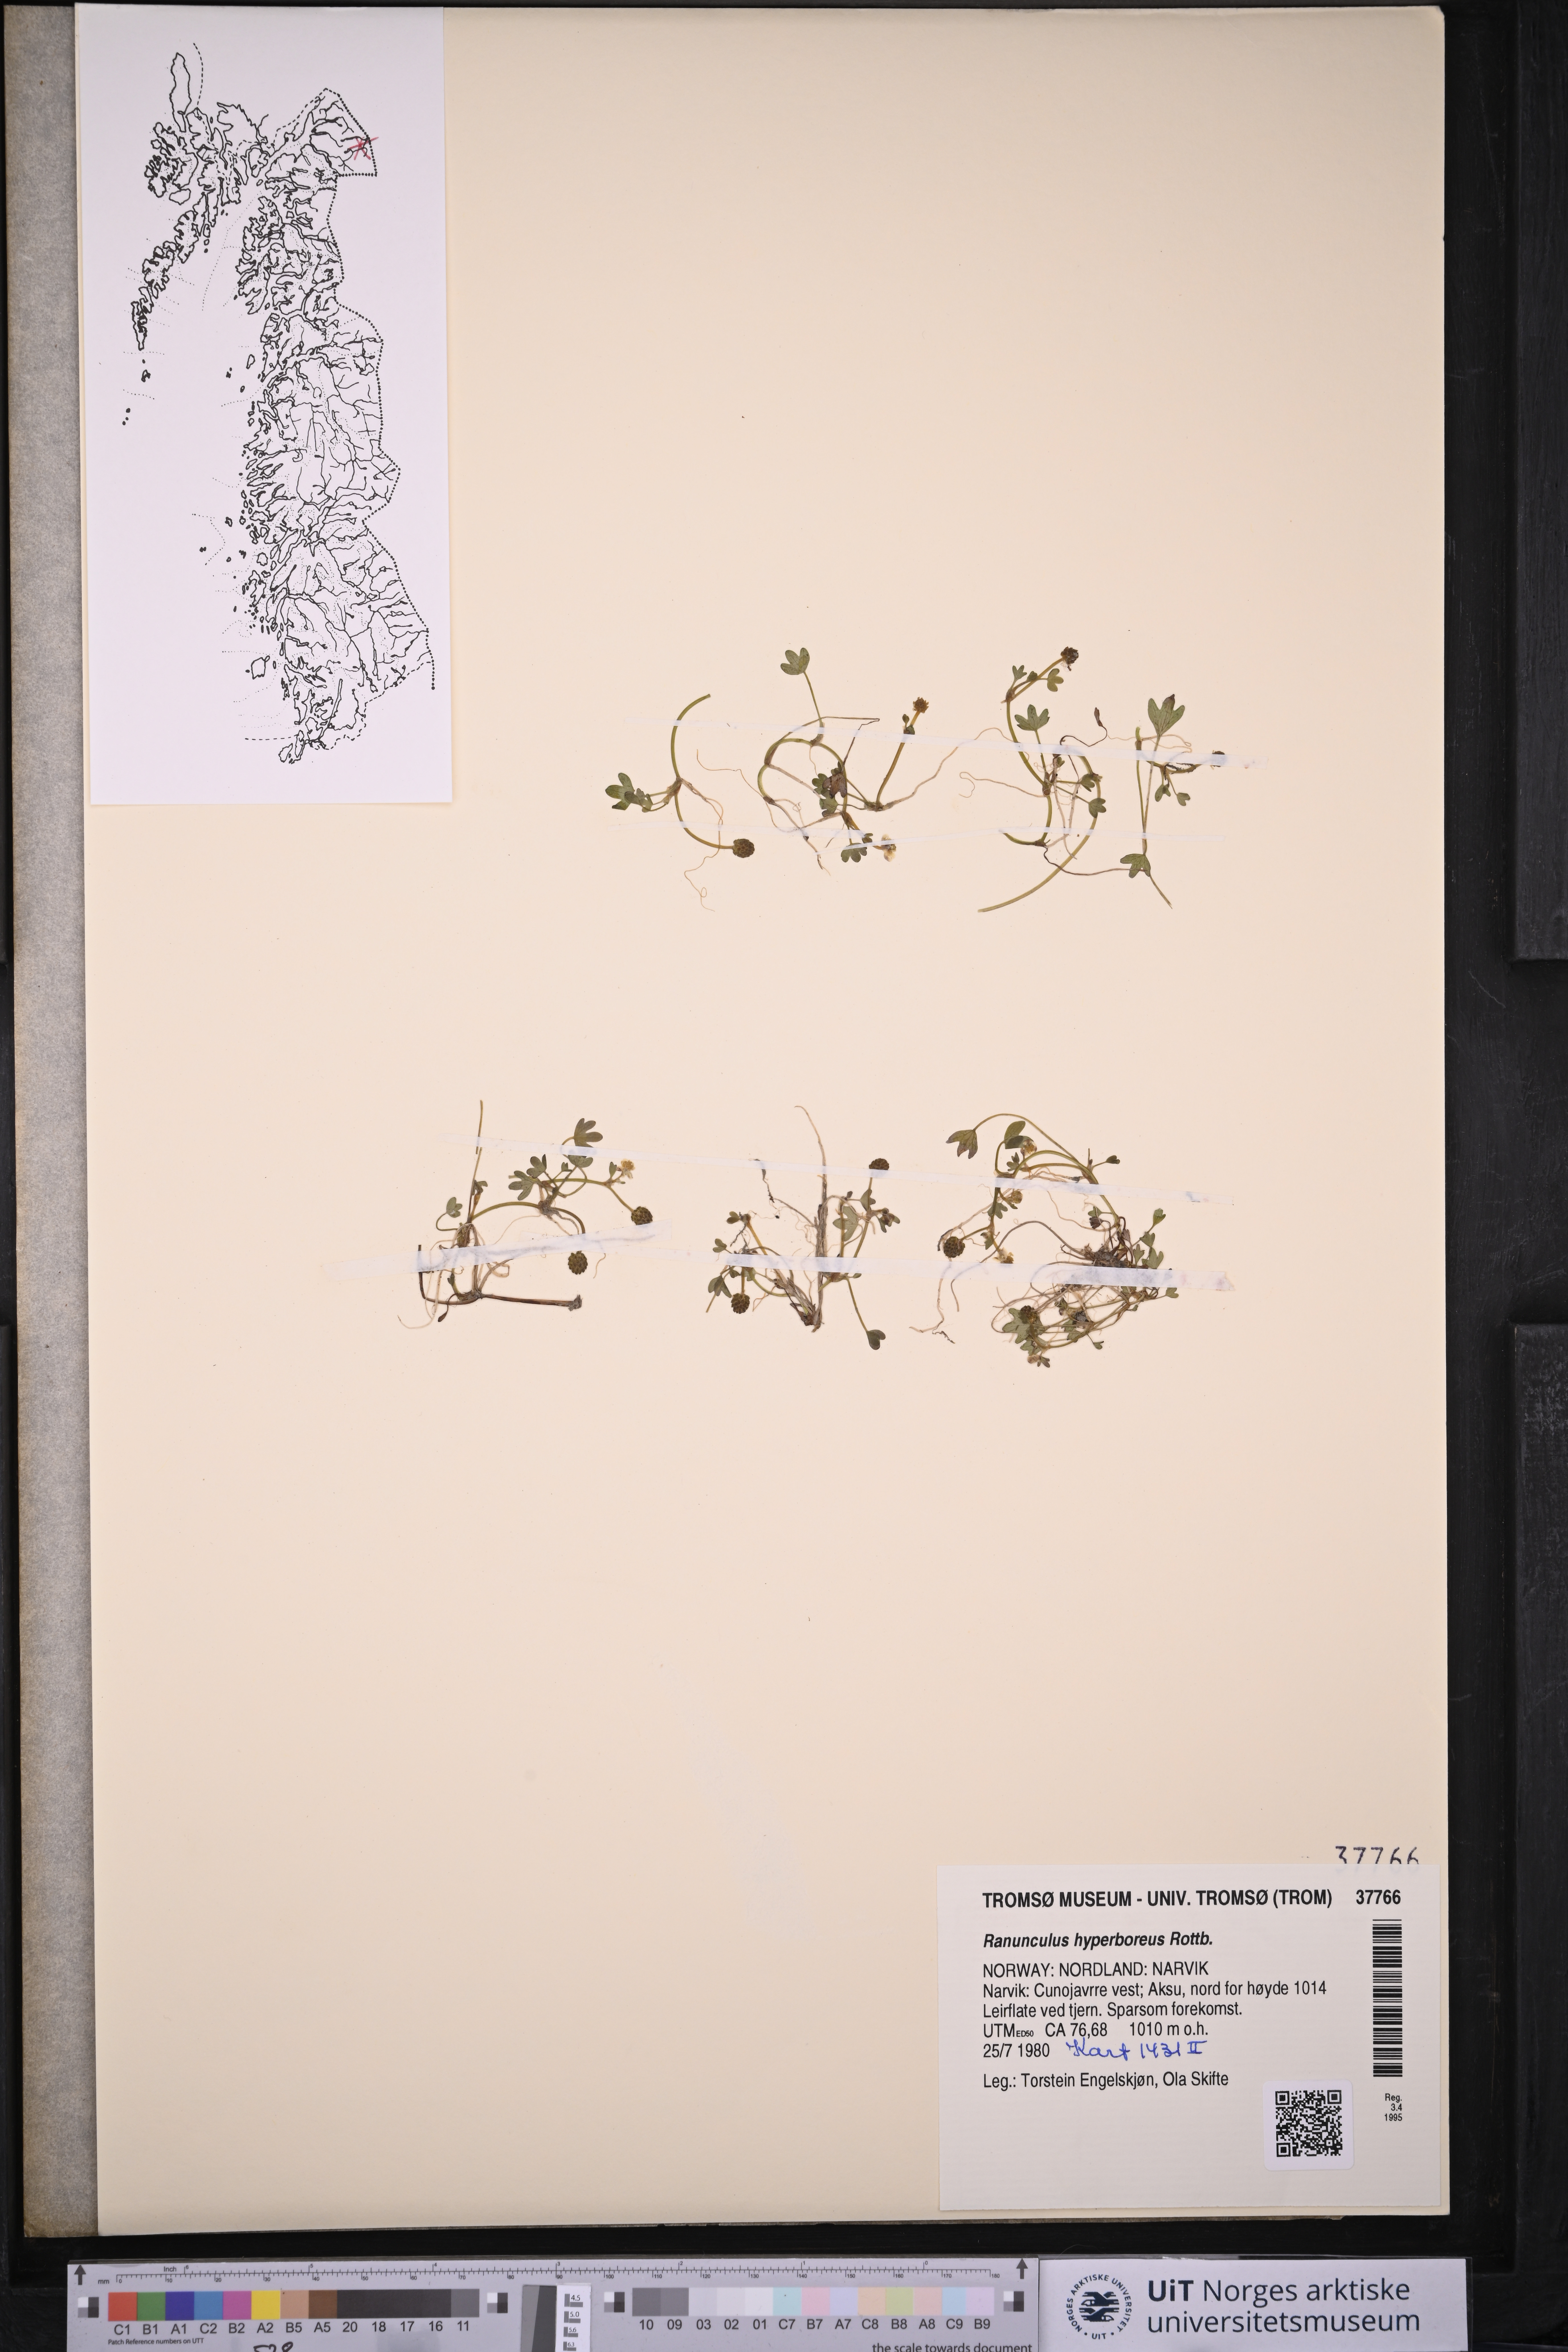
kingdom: Plantae
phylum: Tracheophyta
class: Magnoliopsida
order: Ranunculales
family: Ranunculaceae
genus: Ranunculus
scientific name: Ranunculus hyperboreus
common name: Arctic buttercup
